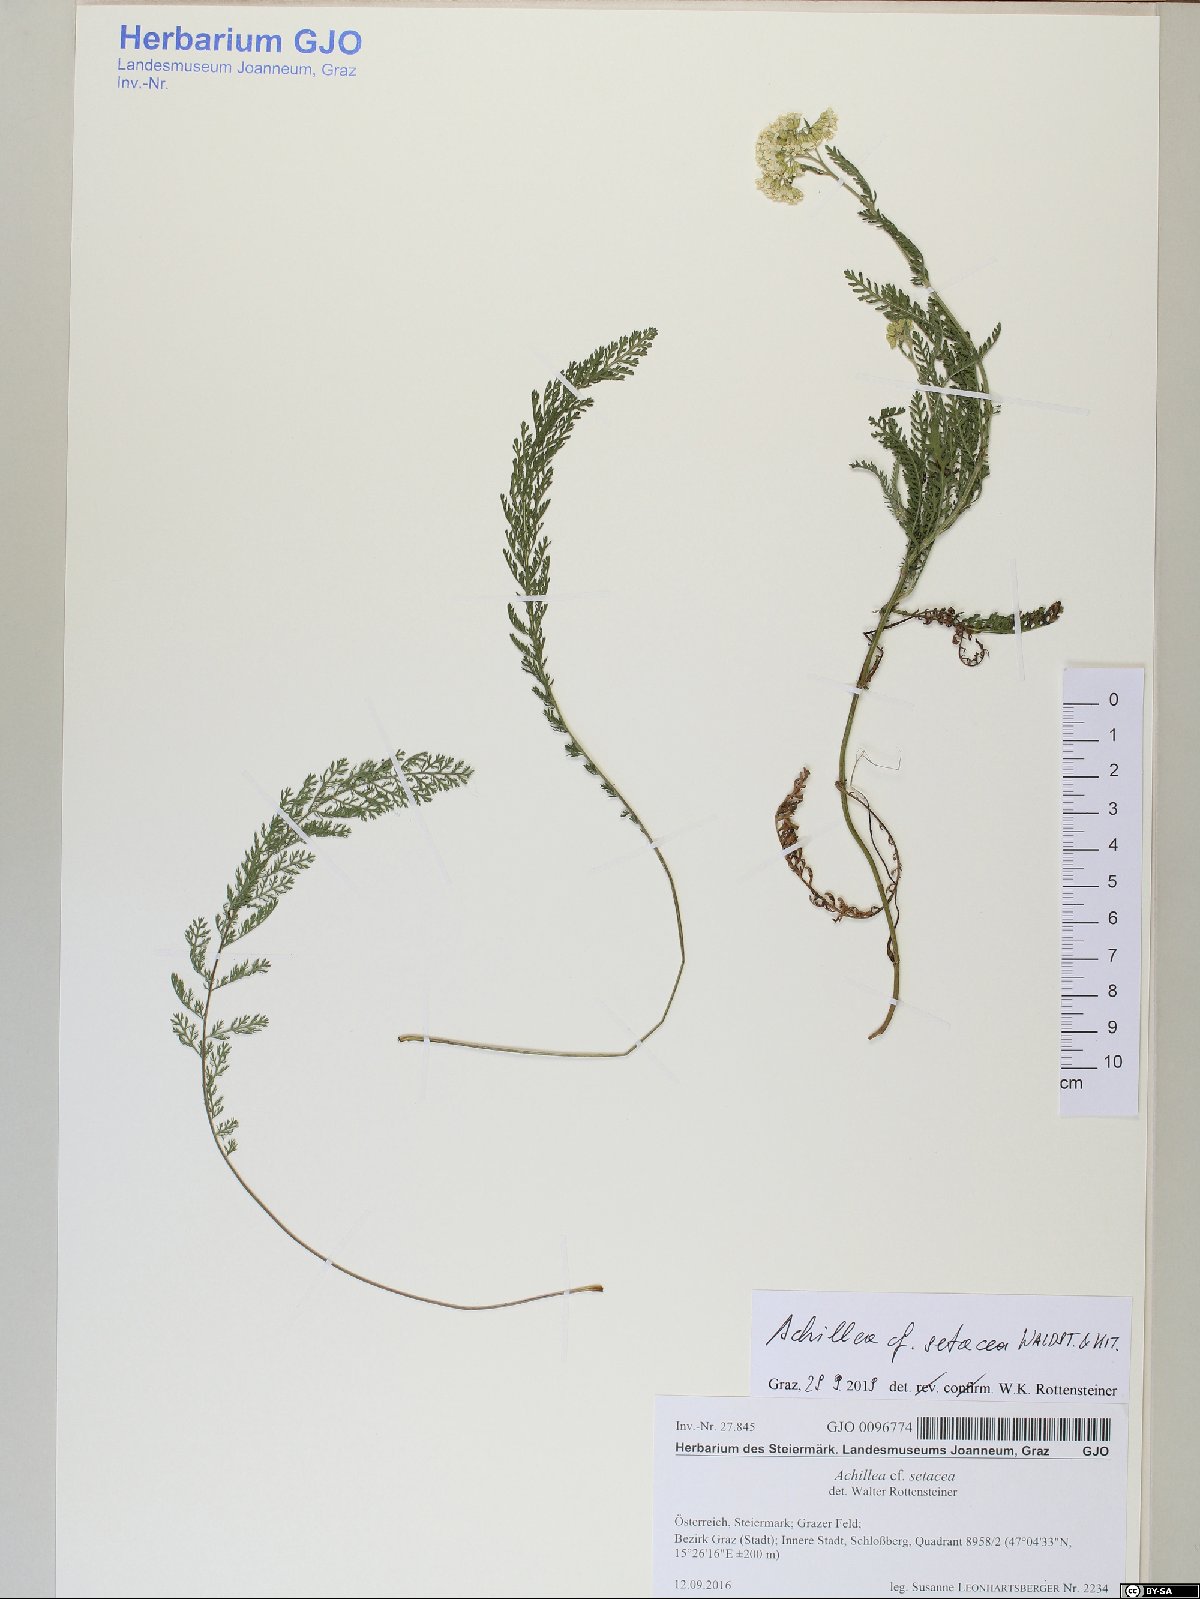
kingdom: Plantae
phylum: Tracheophyta
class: Magnoliopsida
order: Asterales
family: Asteraceae
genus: Achillea
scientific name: Achillea setacea
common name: Bristly yarrow
